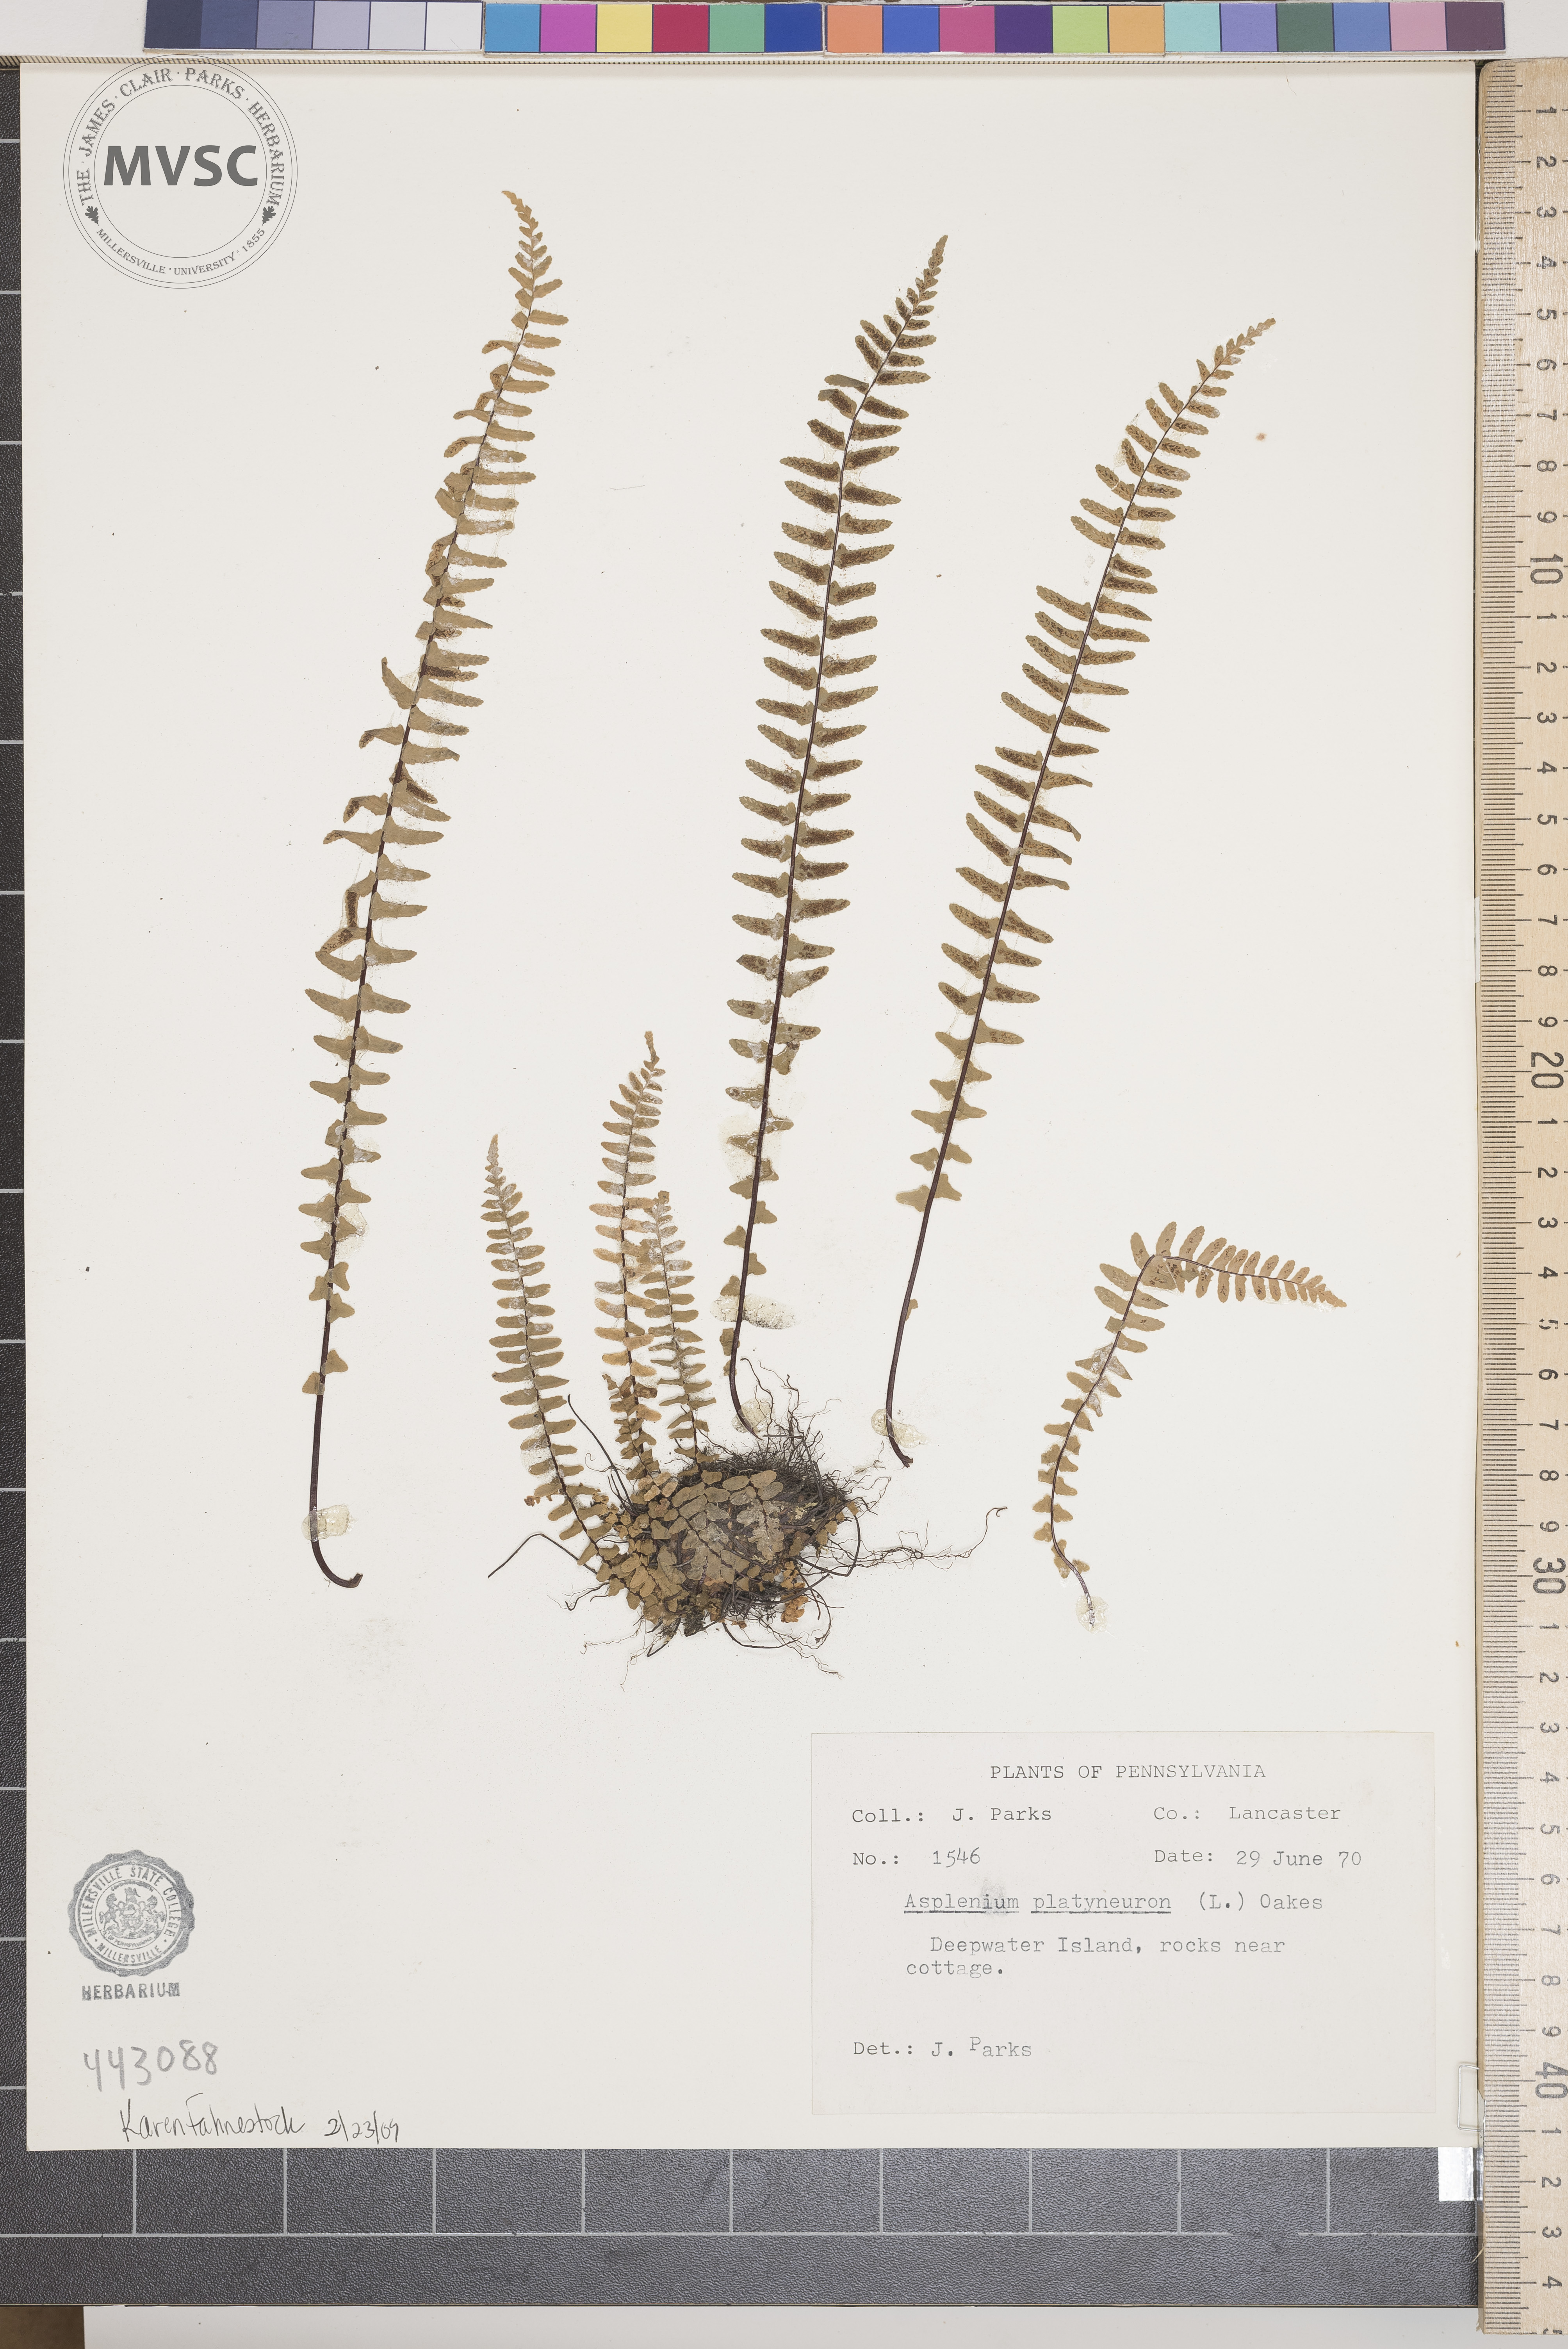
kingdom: Plantae
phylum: Tracheophyta
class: Polypodiopsida
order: Polypodiales
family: Aspleniaceae
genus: Asplenium
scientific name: Asplenium platyneuron
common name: Ebony spleenwort
